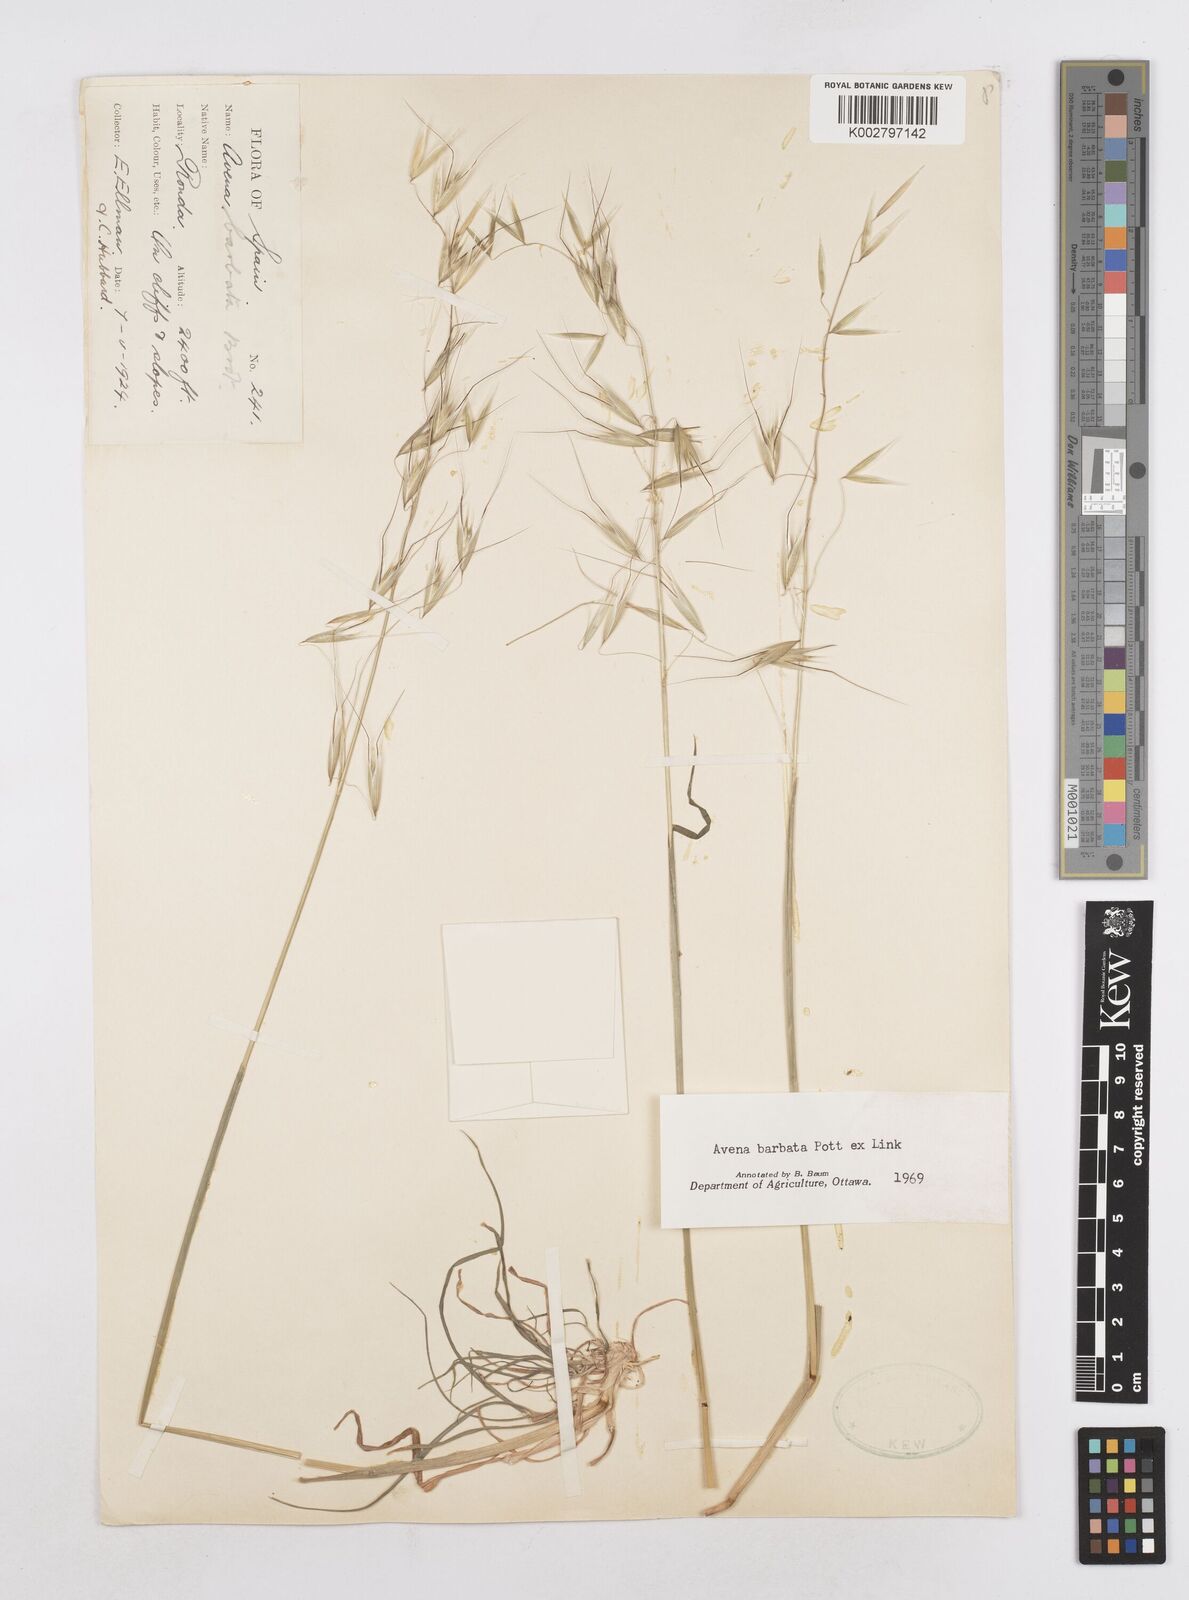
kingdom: Plantae
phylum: Tracheophyta
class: Liliopsida
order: Poales
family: Poaceae
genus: Avena
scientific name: Avena
